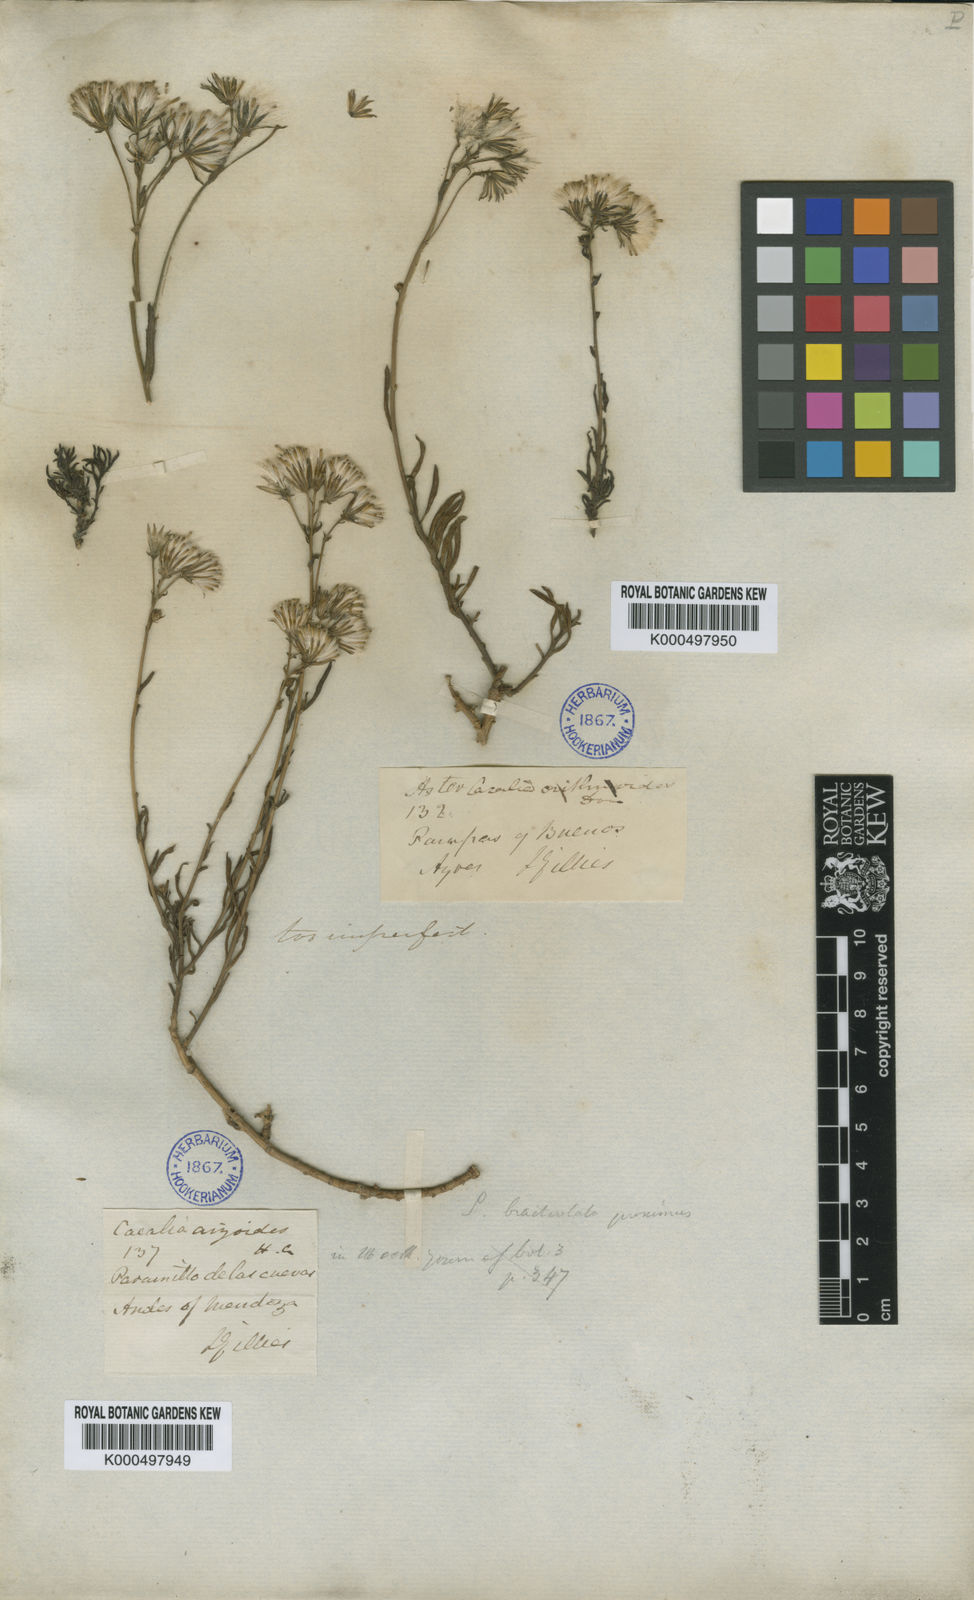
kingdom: Plantae
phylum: Tracheophyta
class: Magnoliopsida
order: Asterales
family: Asteraceae
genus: Senecio
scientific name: Senecio bracteolatus
